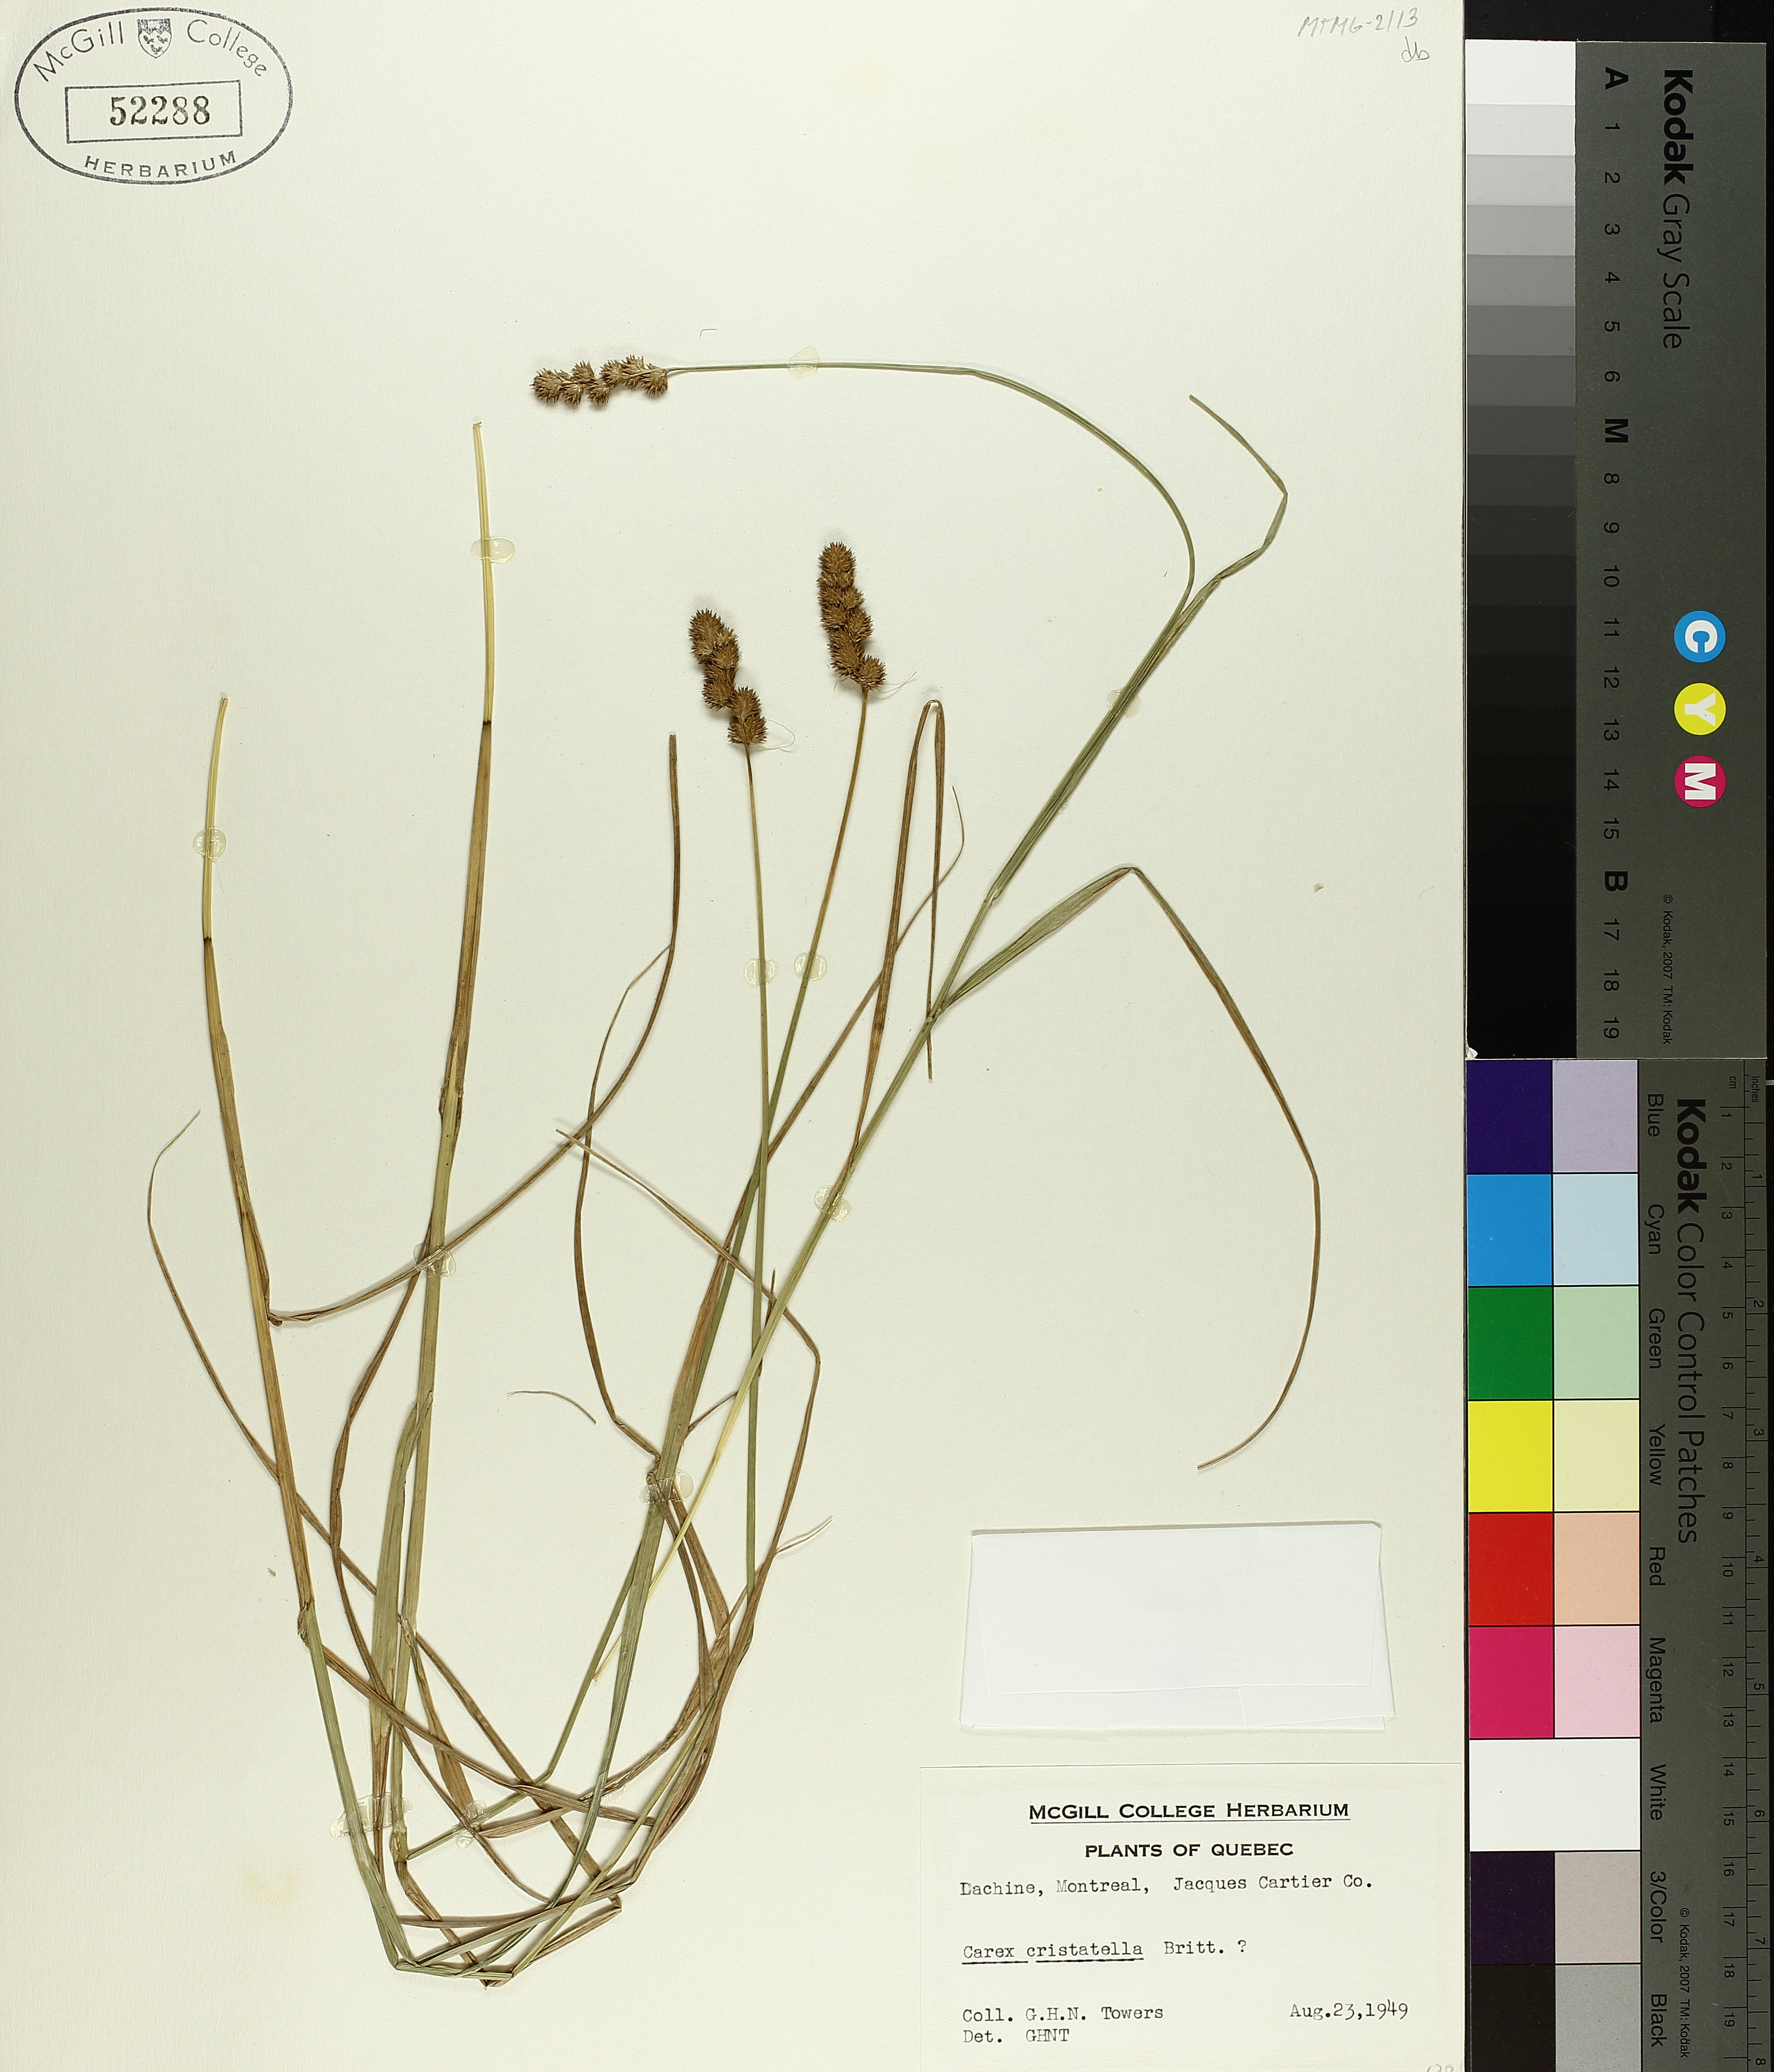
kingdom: Plantae
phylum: Tracheophyta
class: Liliopsida
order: Poales
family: Cyperaceae
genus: Carex
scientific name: Carex cristatella
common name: Crested oval sedge
